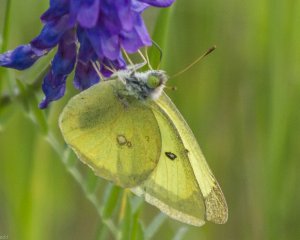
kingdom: Animalia
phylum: Arthropoda
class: Insecta
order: Lepidoptera
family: Pieridae
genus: Colias
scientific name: Colias philodice
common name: Clouded Sulphur
